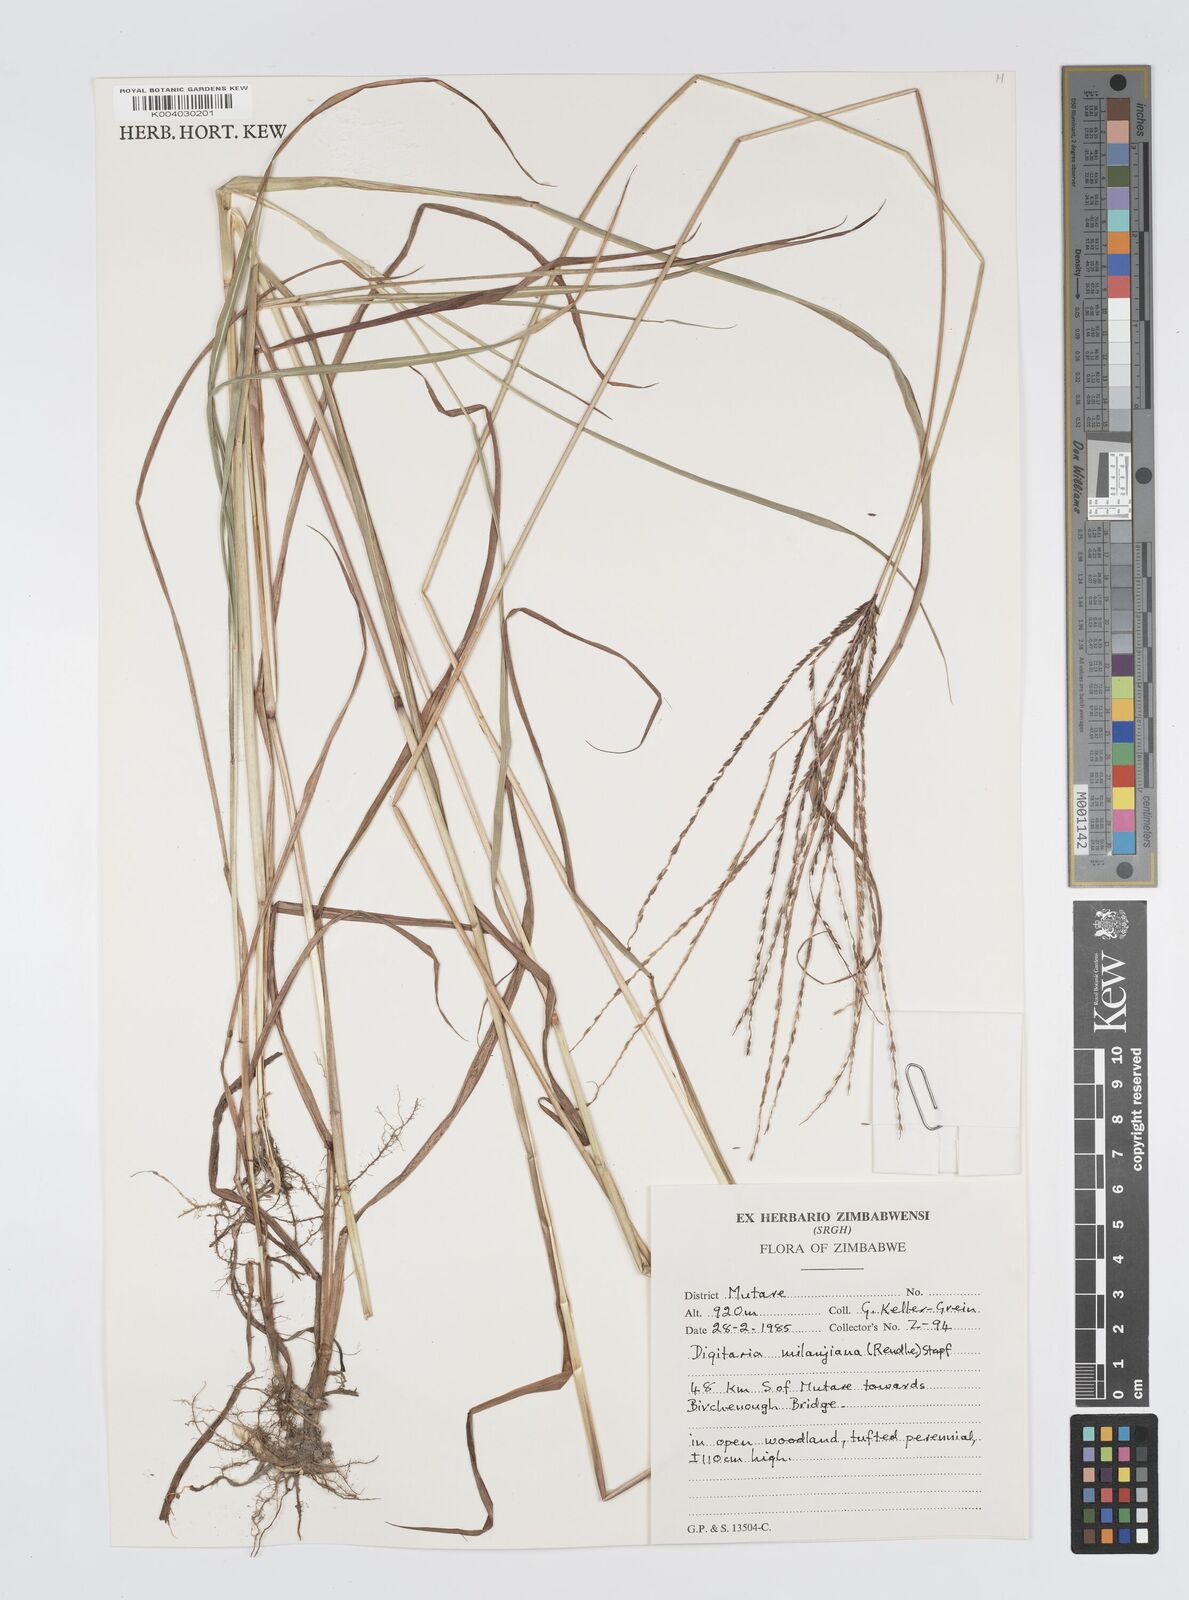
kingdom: Plantae
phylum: Tracheophyta
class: Liliopsida
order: Poales
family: Poaceae
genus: Digitaria
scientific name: Digitaria milanjiana
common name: Madagascar crabgrass
